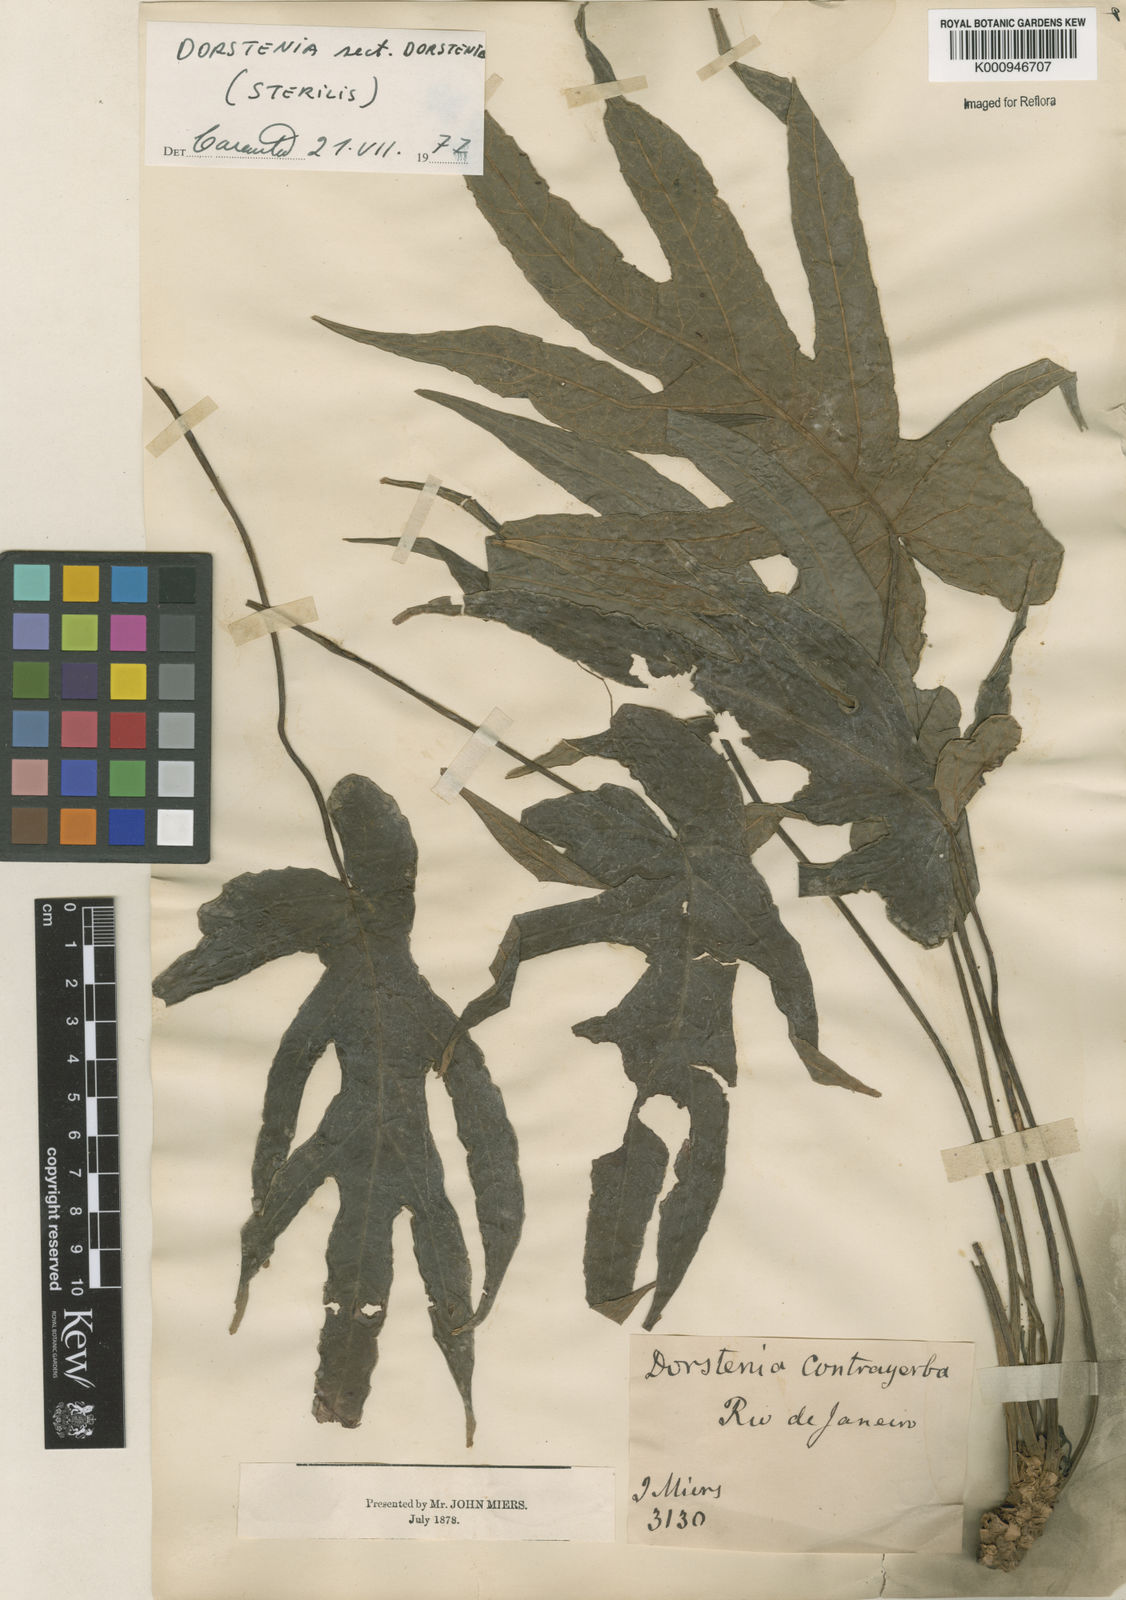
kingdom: Plantae
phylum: Tracheophyta
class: Magnoliopsida
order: Rosales
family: Moraceae
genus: Dorstenia
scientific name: Dorstenia
